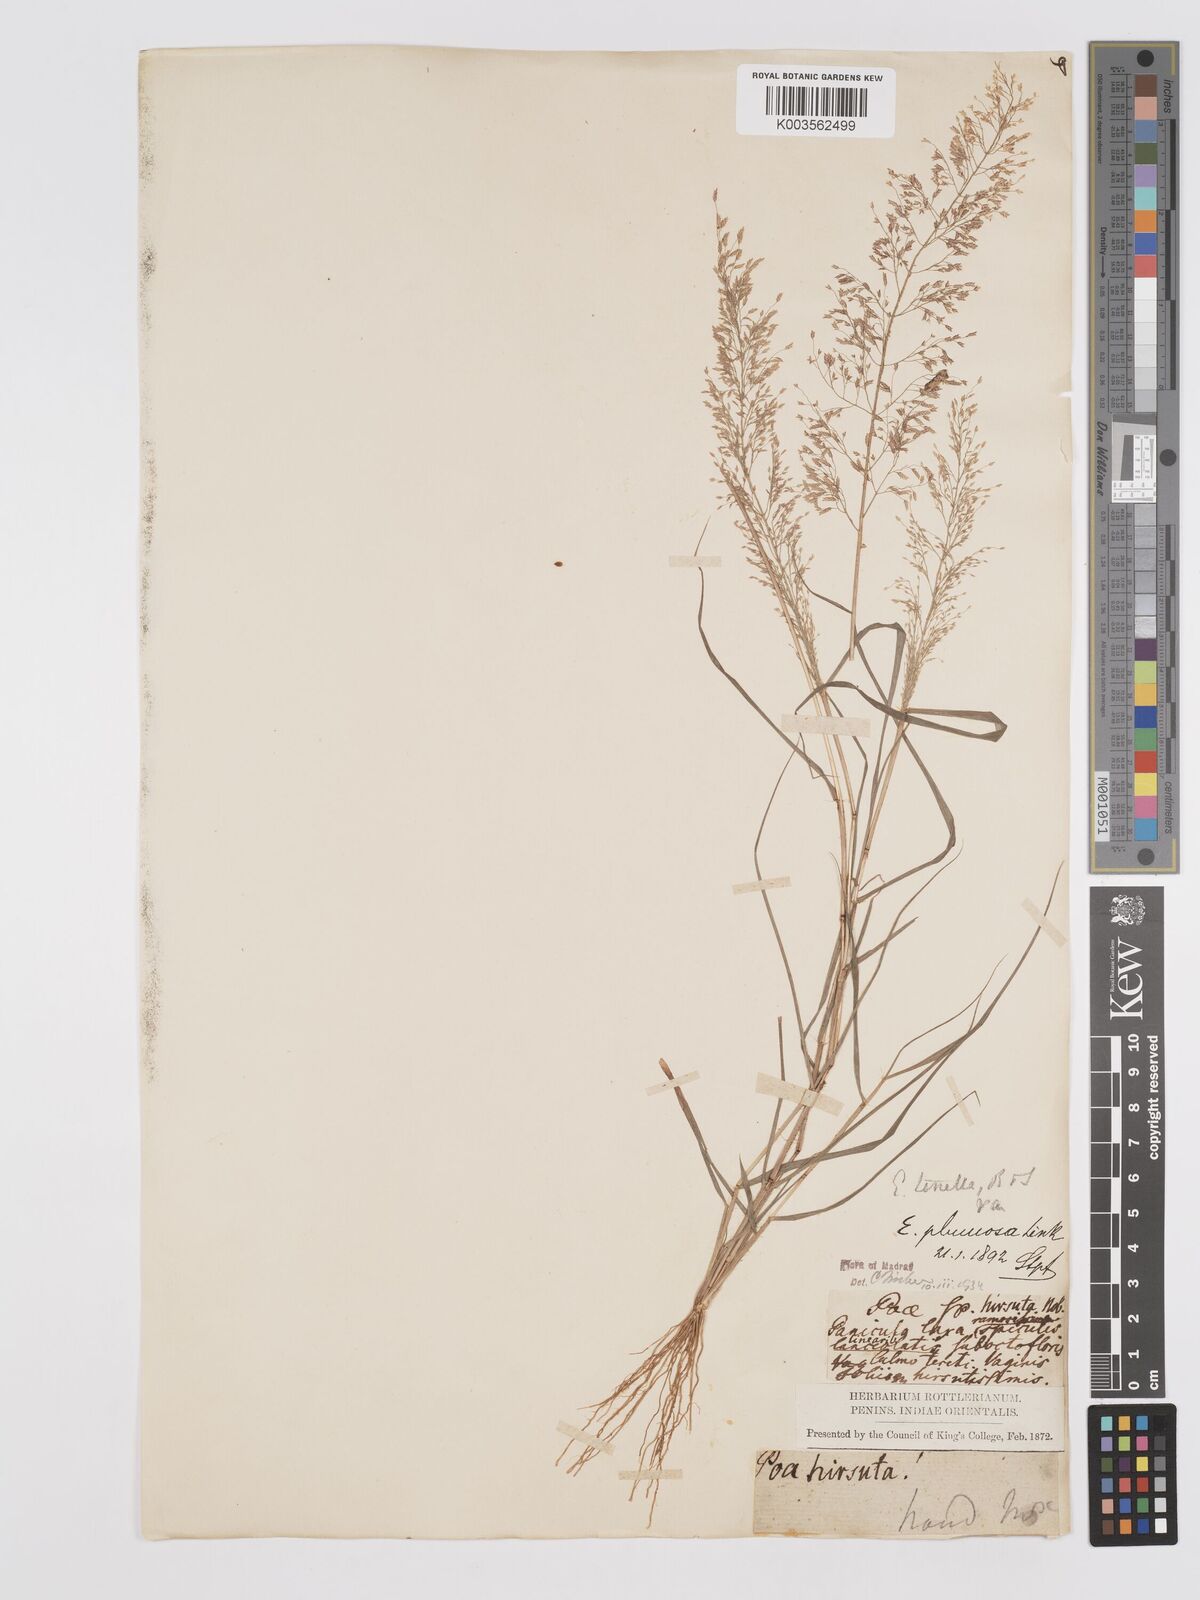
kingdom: Plantae
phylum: Tracheophyta
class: Liliopsida
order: Poales
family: Poaceae
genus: Eragrostis
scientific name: Eragrostis tenella
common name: Japanese lovegrass
